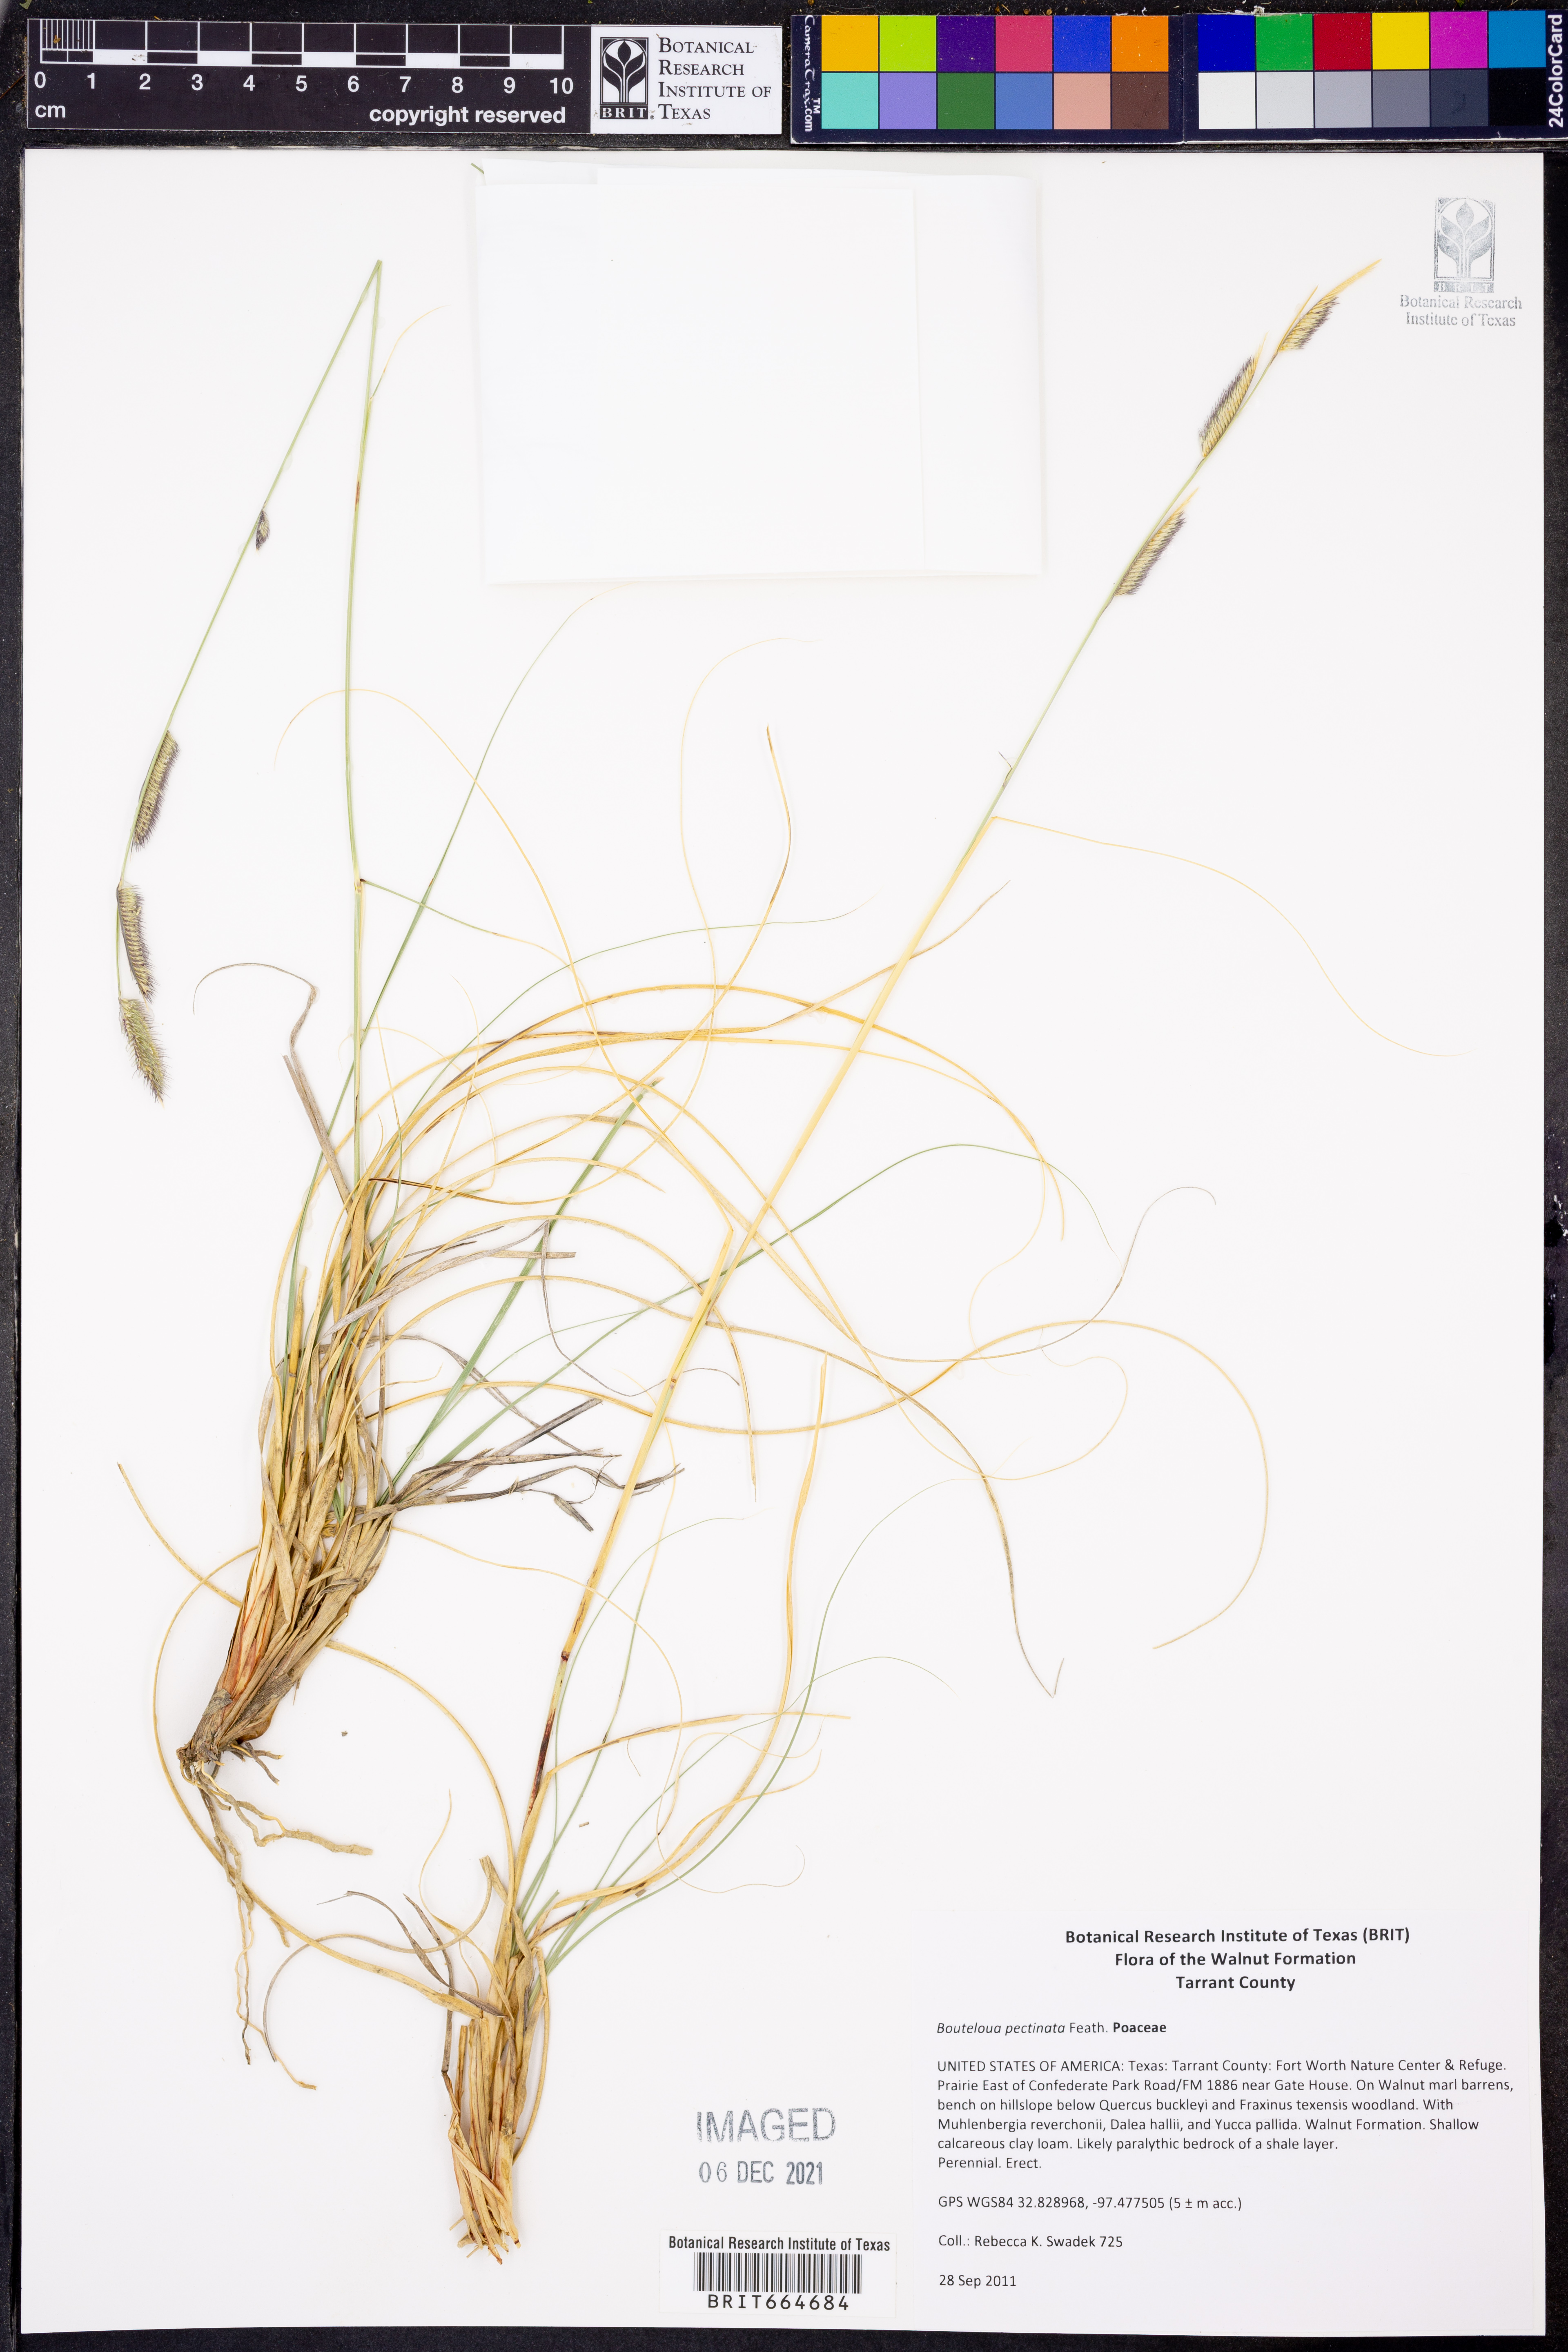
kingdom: Plantae
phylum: Tracheophyta
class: Liliopsida
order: Poales
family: Poaceae
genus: Bouteloua
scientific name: Bouteloua pectinata
